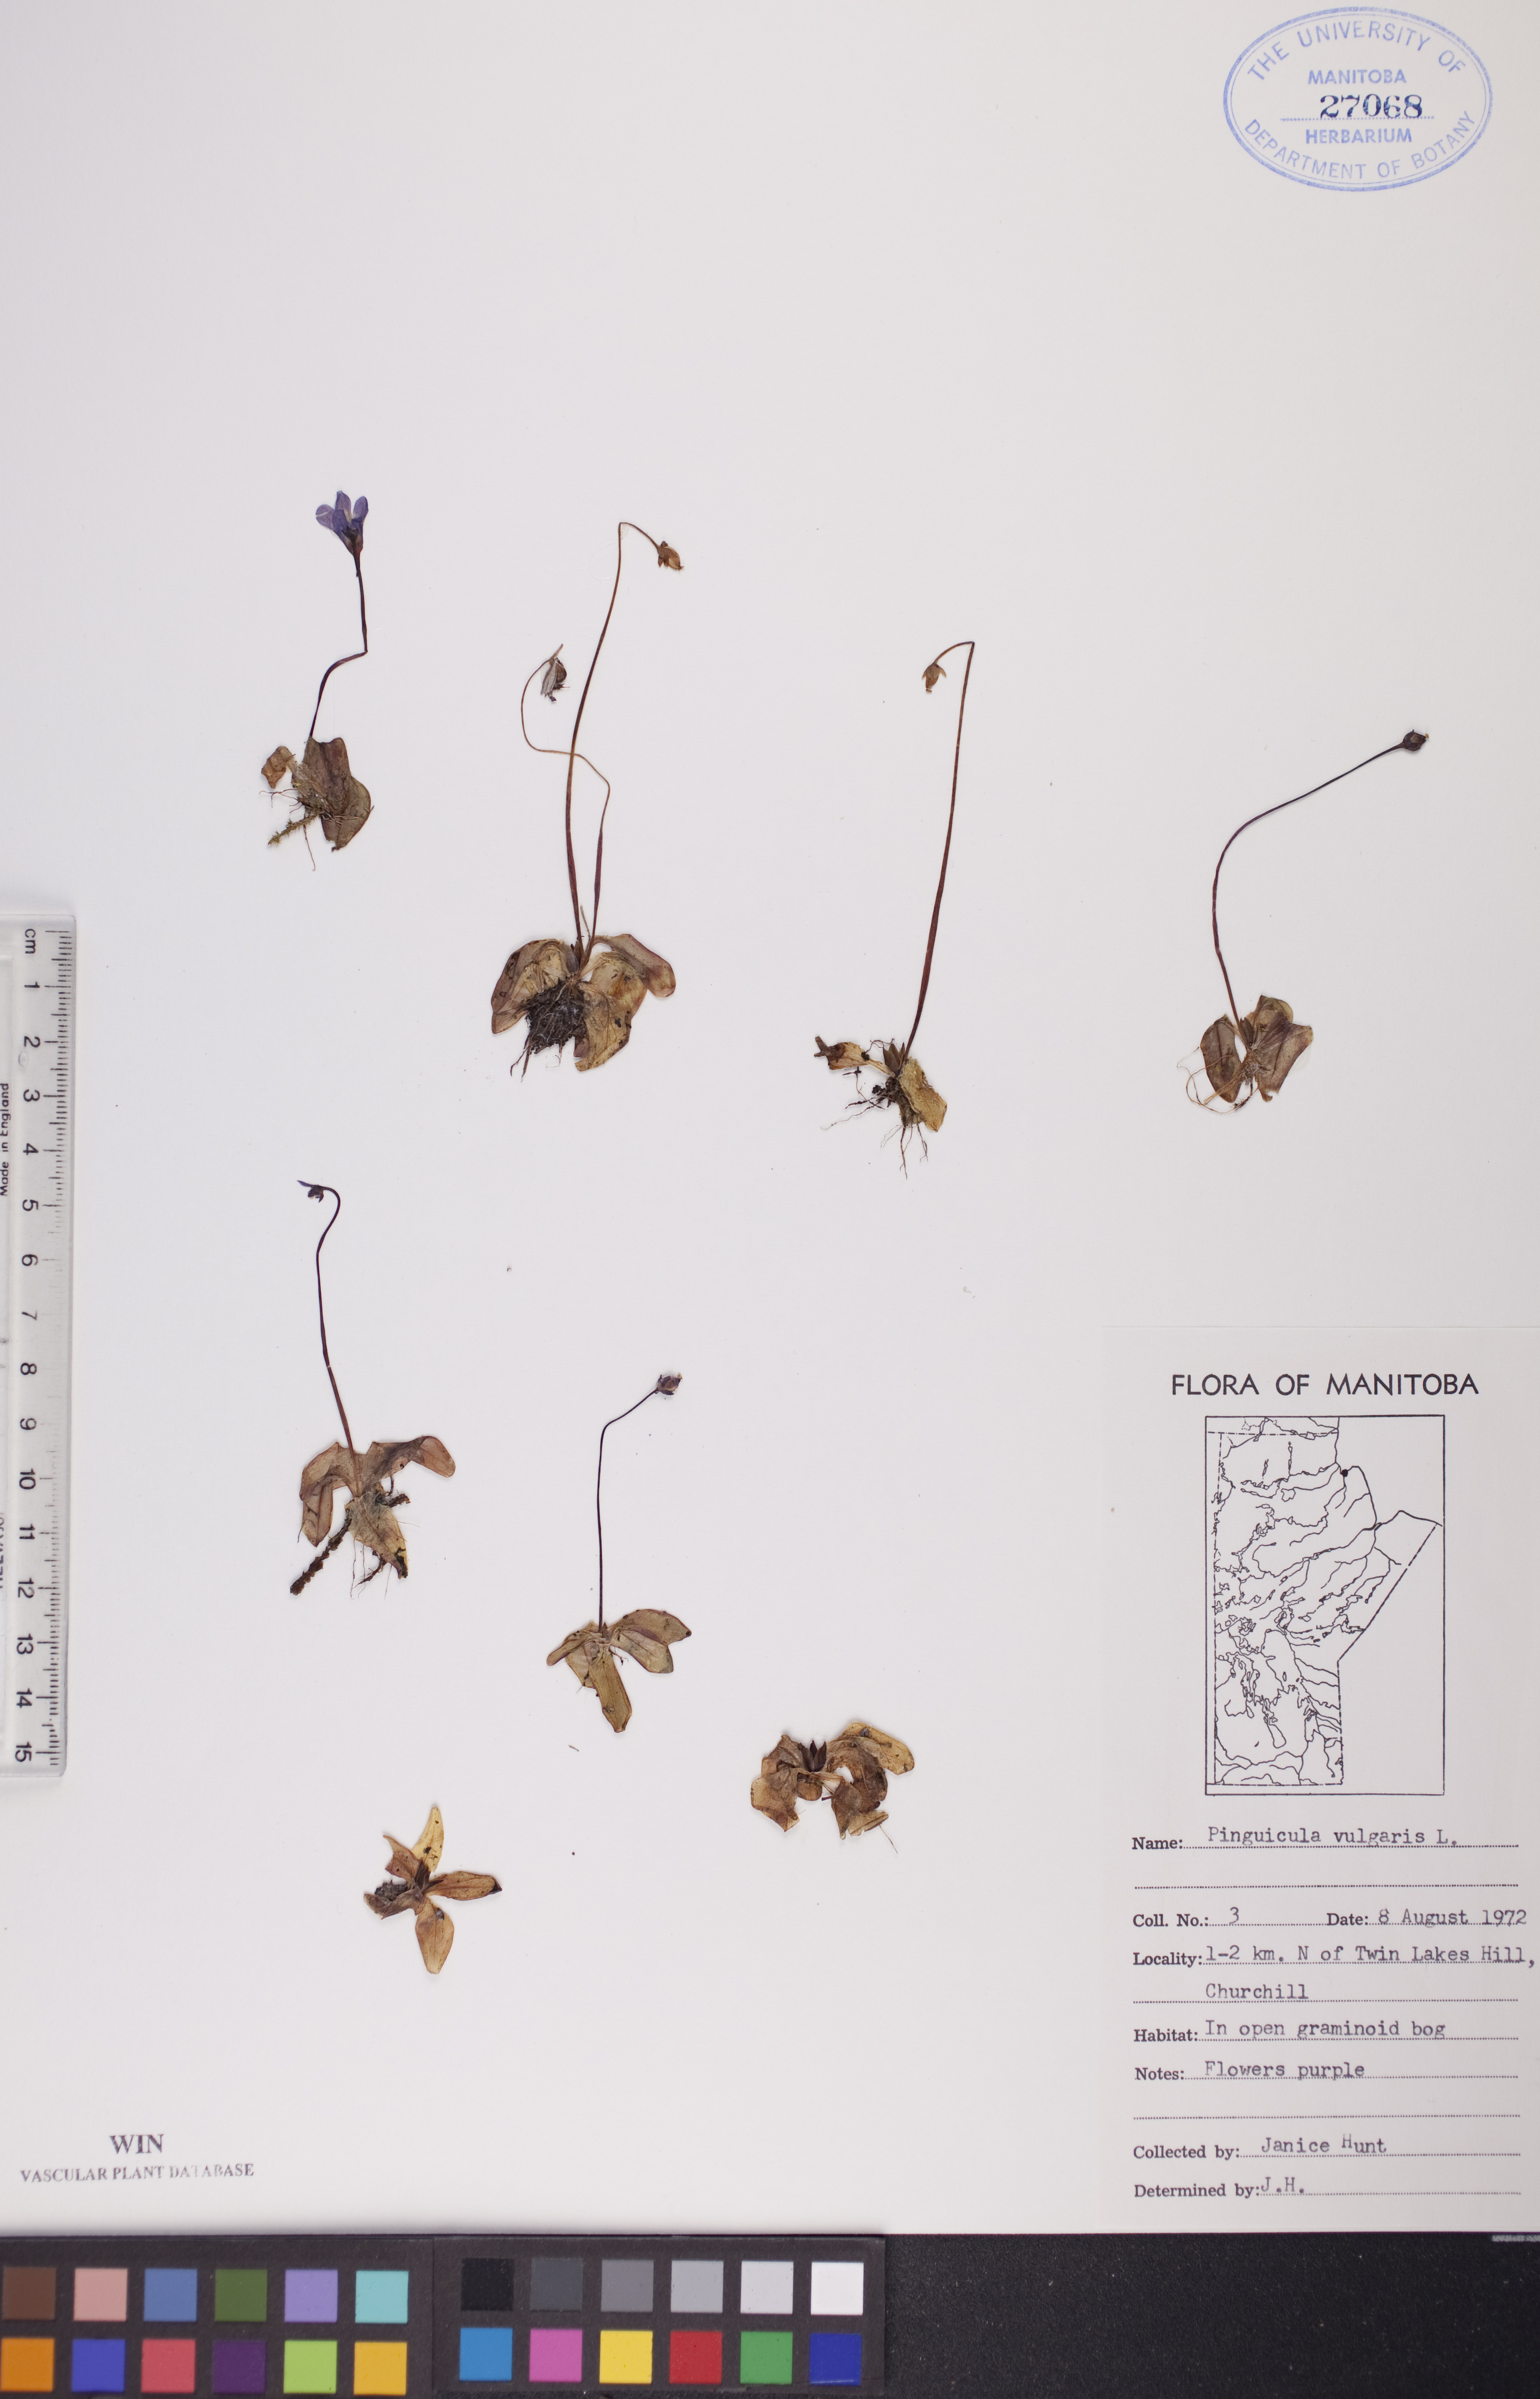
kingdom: Plantae
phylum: Tracheophyta
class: Magnoliopsida
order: Lamiales
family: Lentibulariaceae
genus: Pinguicula
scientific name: Pinguicula vulgaris
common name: Common butterwort
